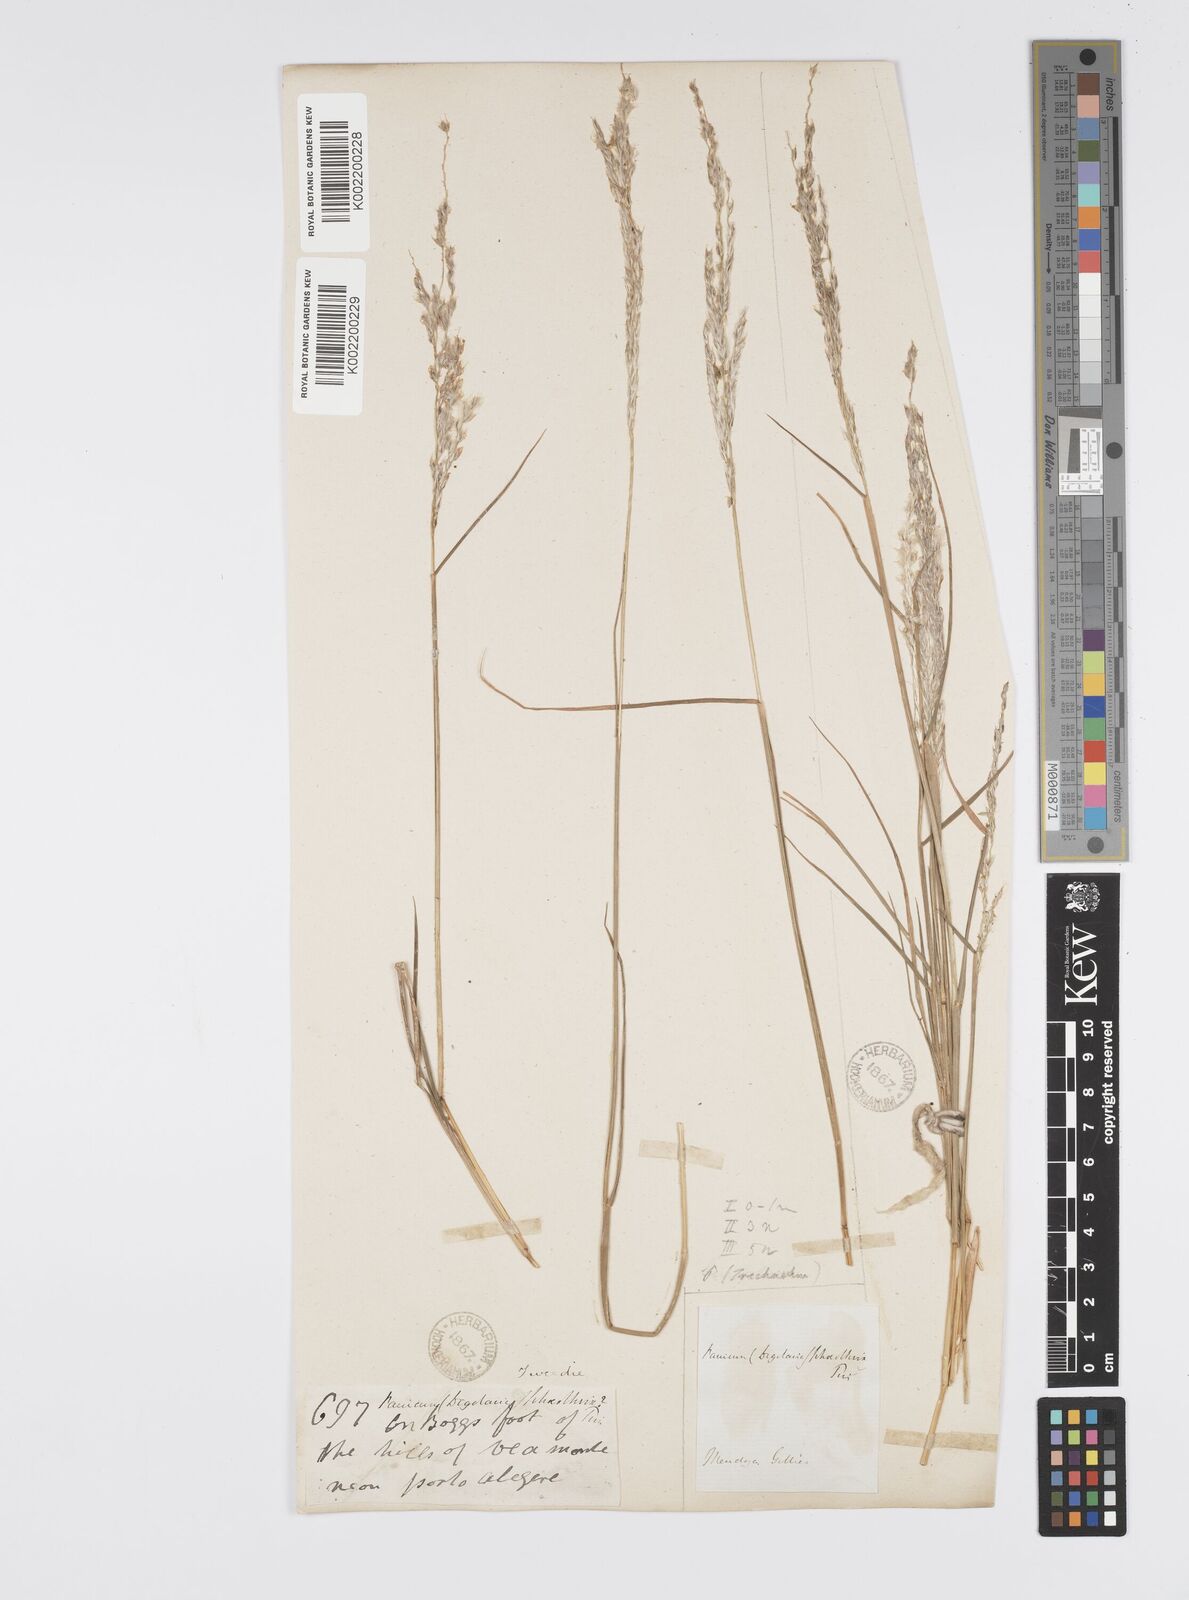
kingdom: Plantae
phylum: Tracheophyta
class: Liliopsida
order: Poales
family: Poaceae
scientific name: Poaceae
